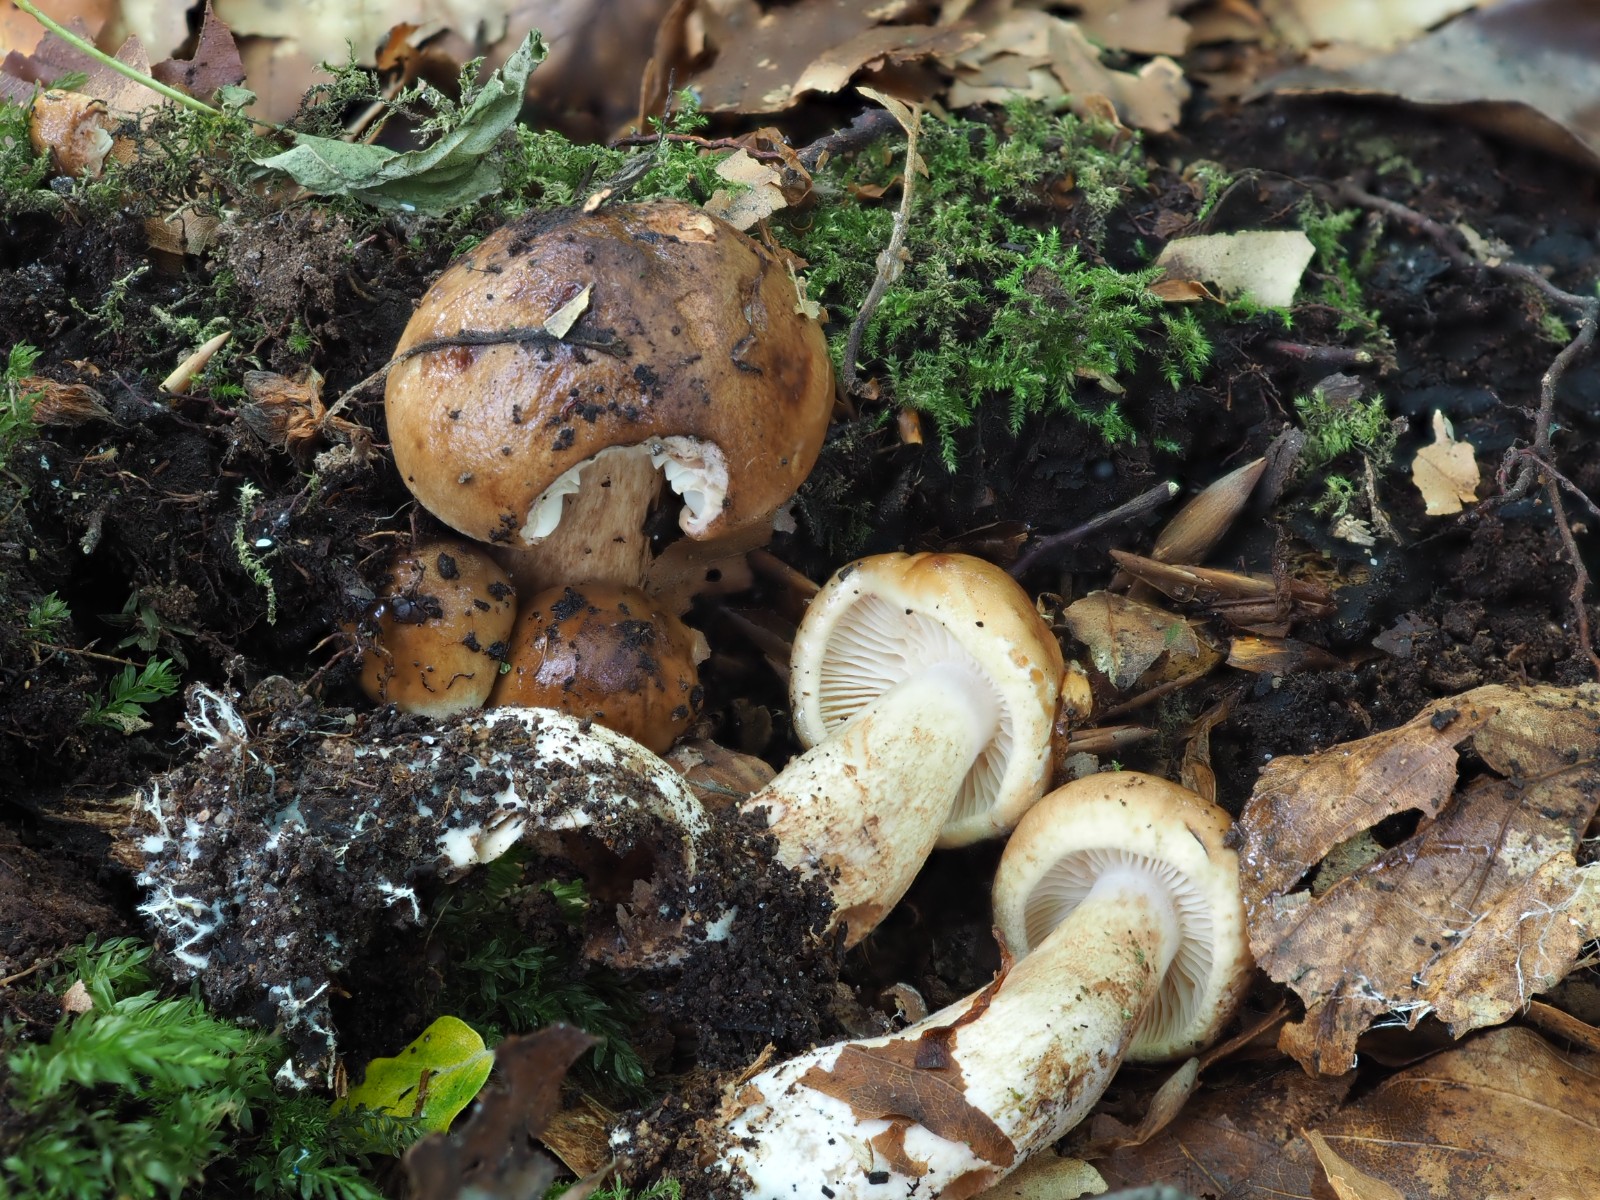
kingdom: Fungi
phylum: Basidiomycota
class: Agaricomycetes
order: Agaricales
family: Tricholomataceae
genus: Tricholoma
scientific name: Tricholoma ustale
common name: sveden ridderhat
